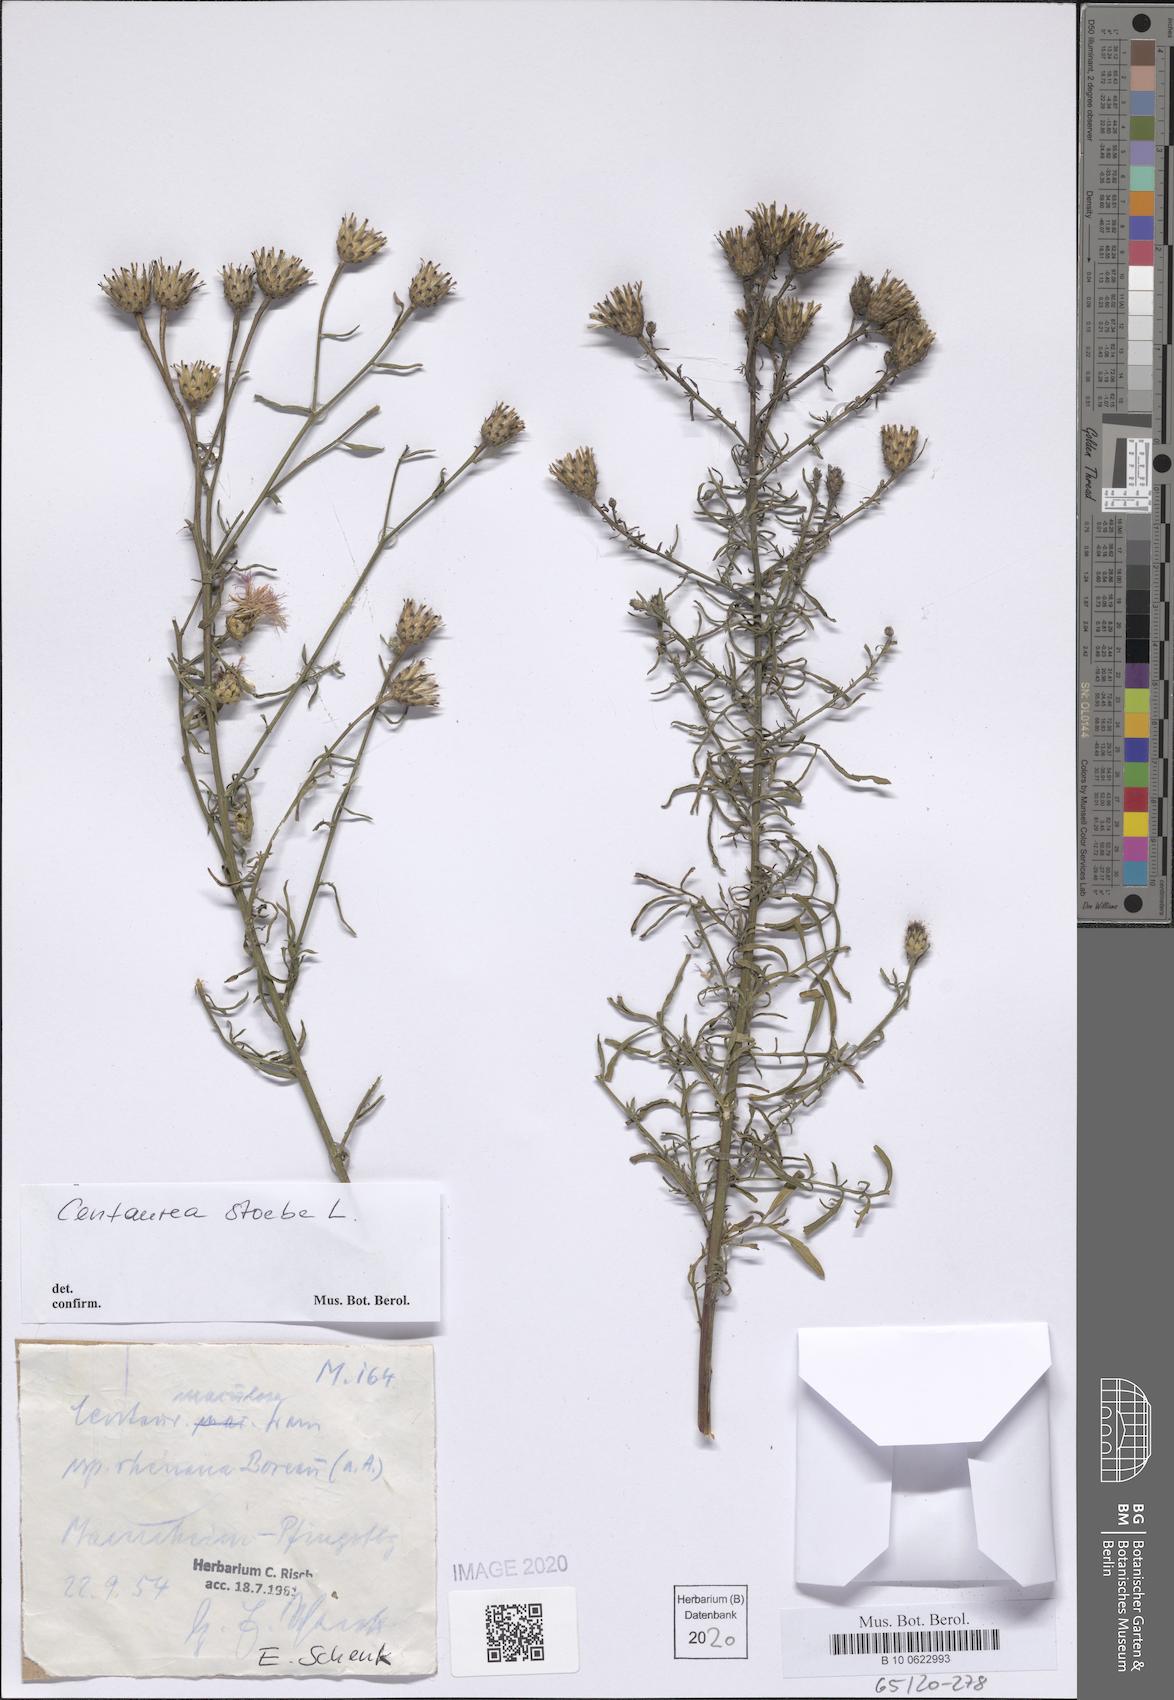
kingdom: Plantae
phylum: Tracheophyta
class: Magnoliopsida
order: Asterales
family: Asteraceae
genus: Centaurea
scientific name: Centaurea stoebe
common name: Spotted knapweed
